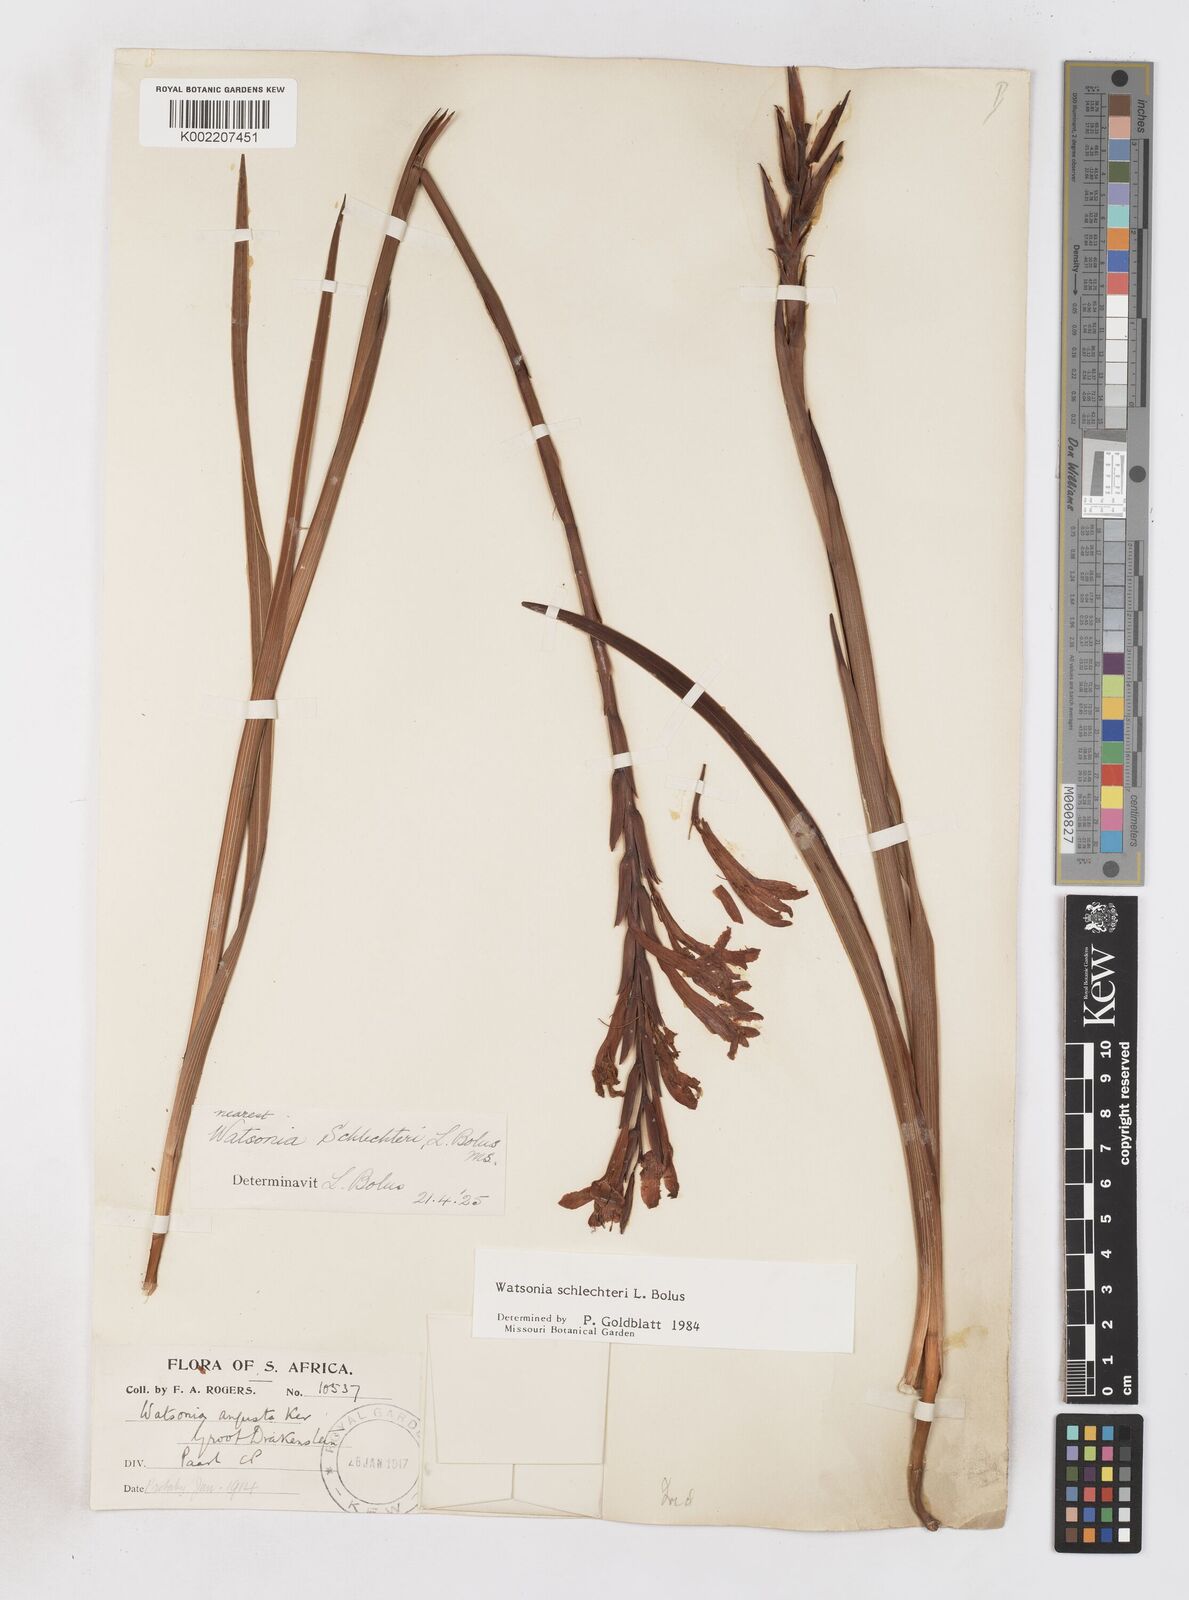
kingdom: Plantae
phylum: Tracheophyta
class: Liliopsida
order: Asparagales
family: Iridaceae
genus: Watsonia
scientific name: Watsonia schlechteri
